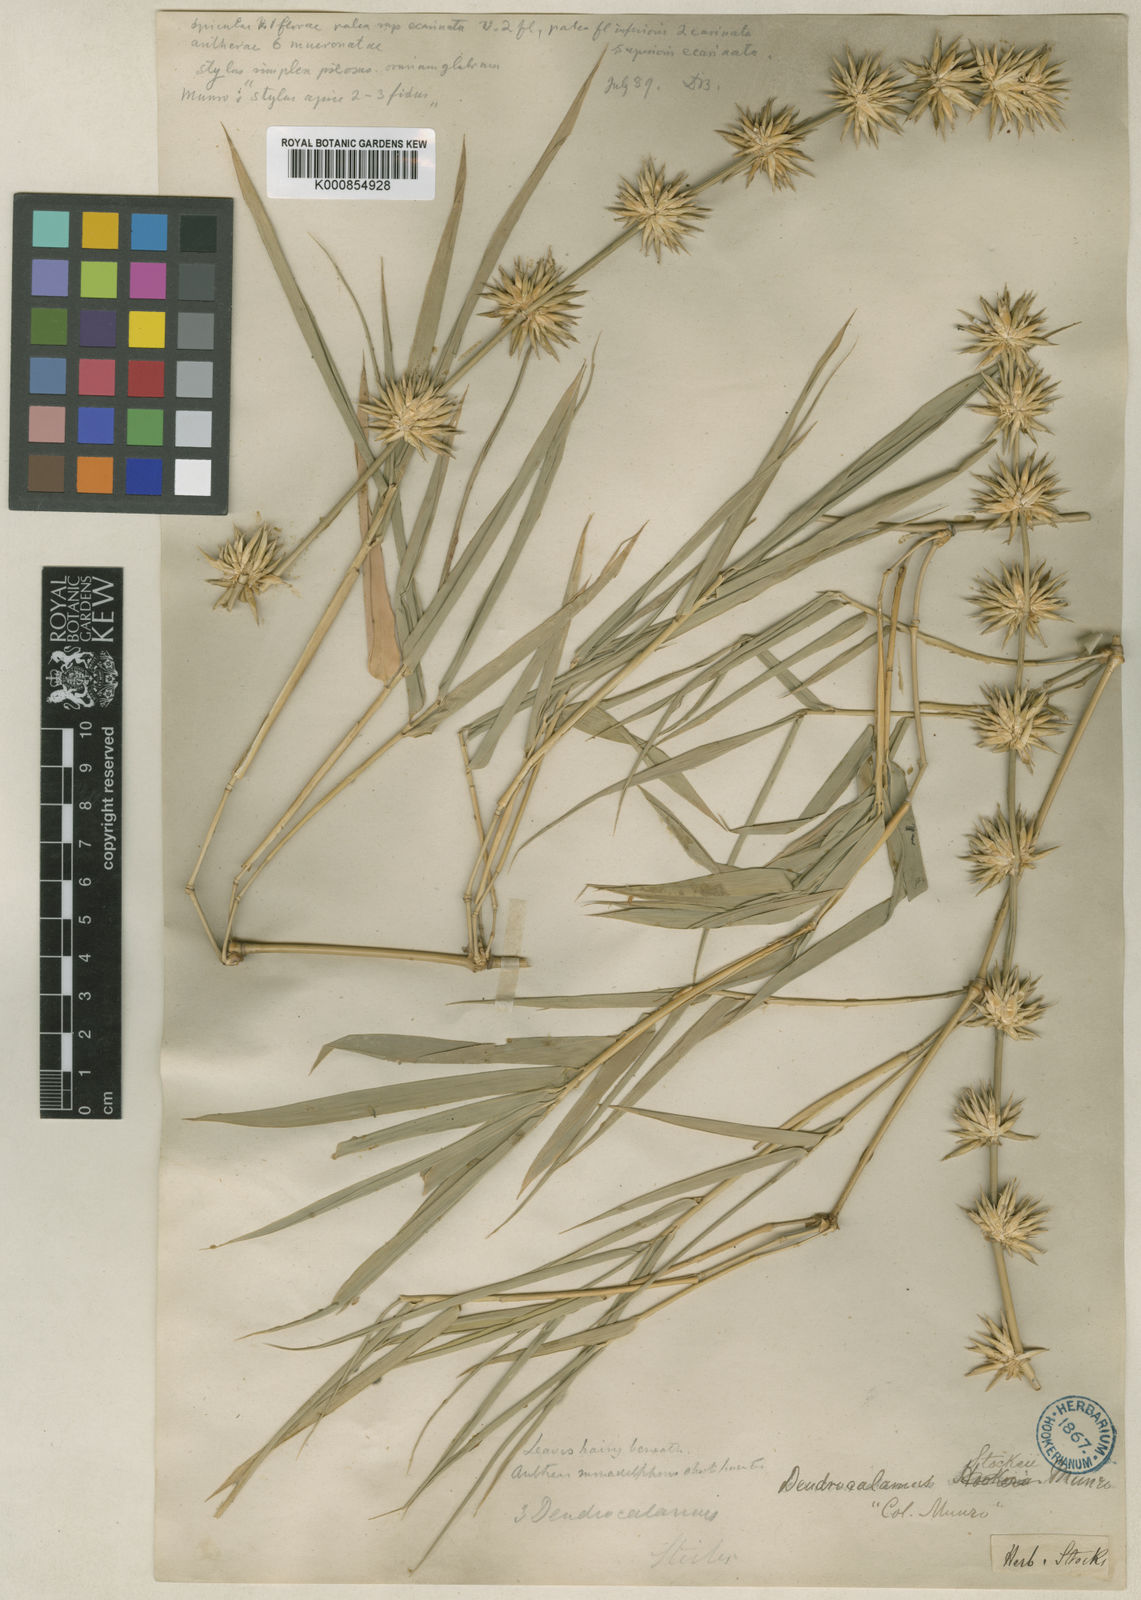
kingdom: Plantae
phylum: Tracheophyta
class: Liliopsida
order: Poales
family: Poaceae
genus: Dendrocalamus
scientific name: Dendrocalamus giganteus
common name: Giant bamboo
